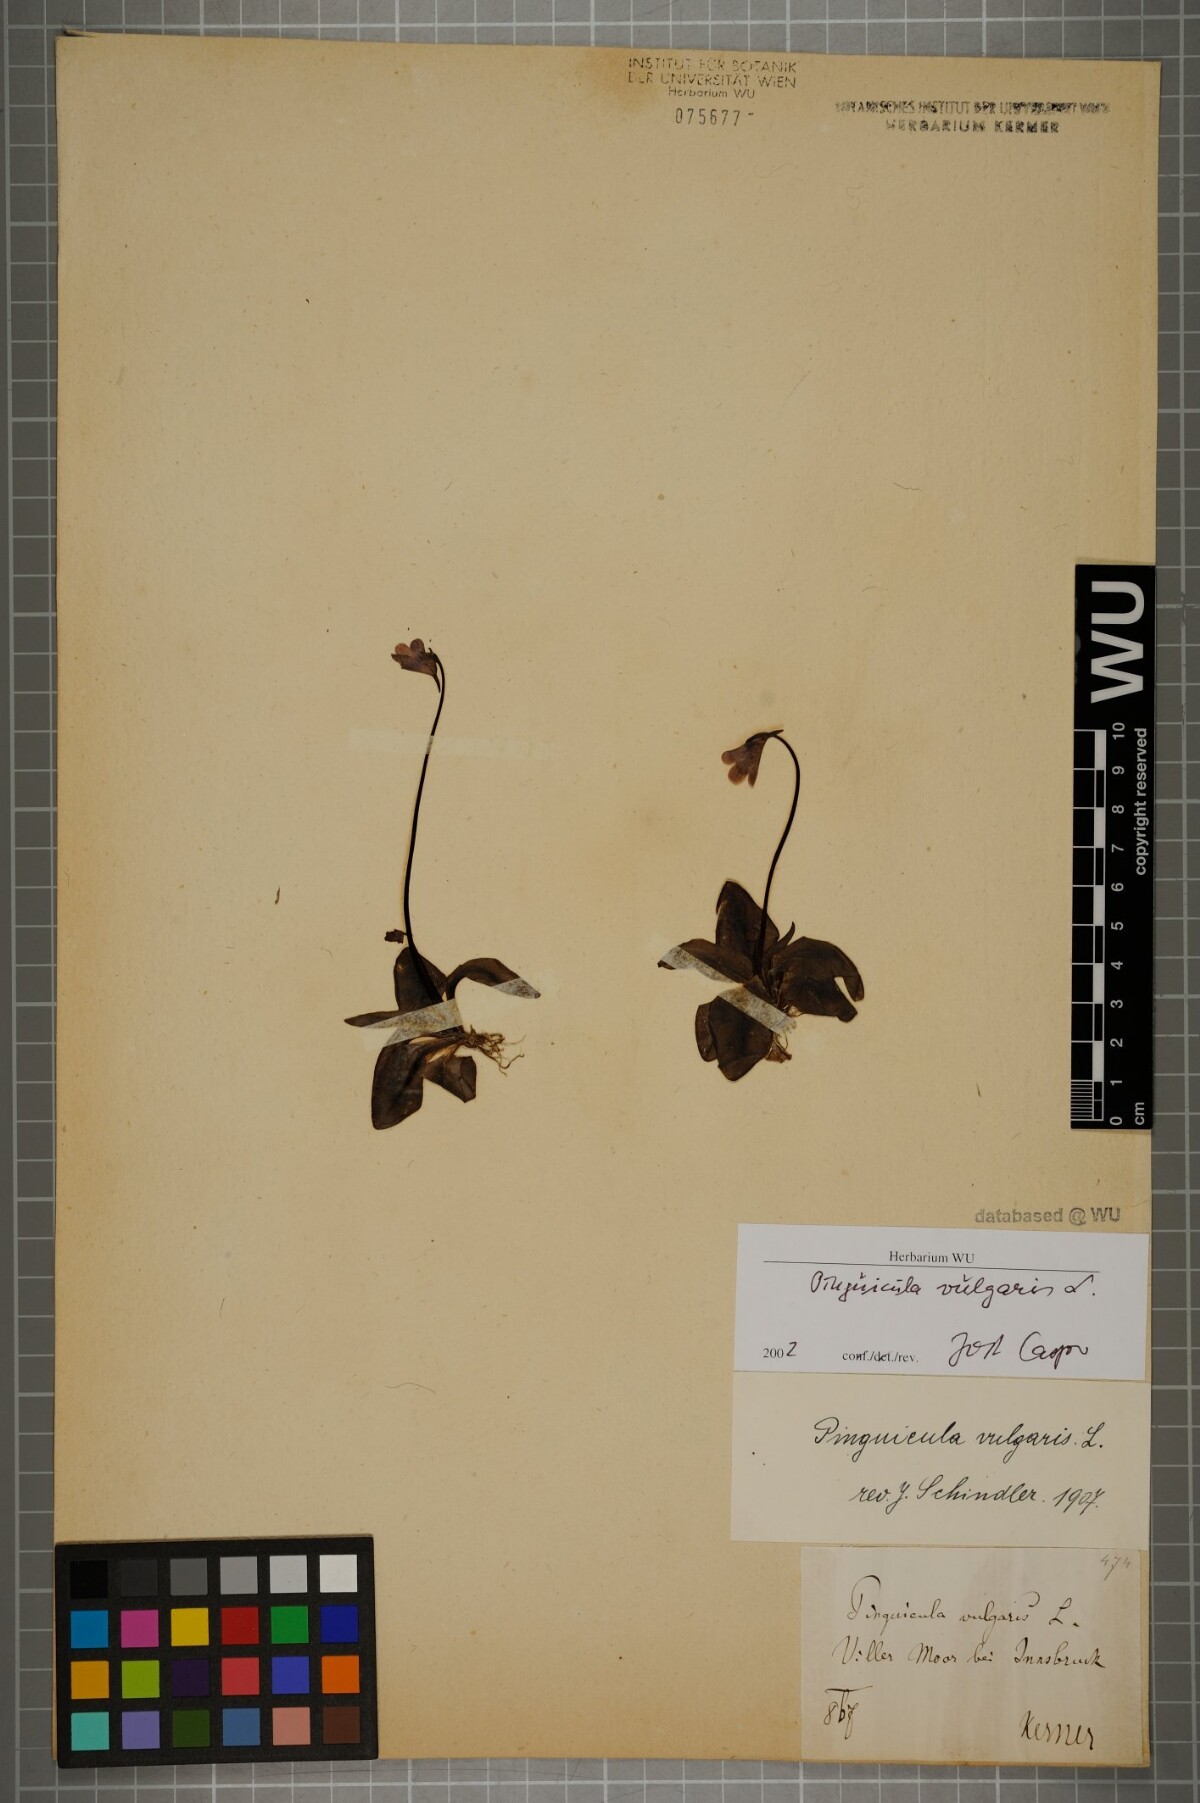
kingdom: Plantae
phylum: Tracheophyta
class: Magnoliopsida
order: Lamiales
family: Lentibulariaceae
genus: Pinguicula
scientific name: Pinguicula vulgaris
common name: Common butterwort
